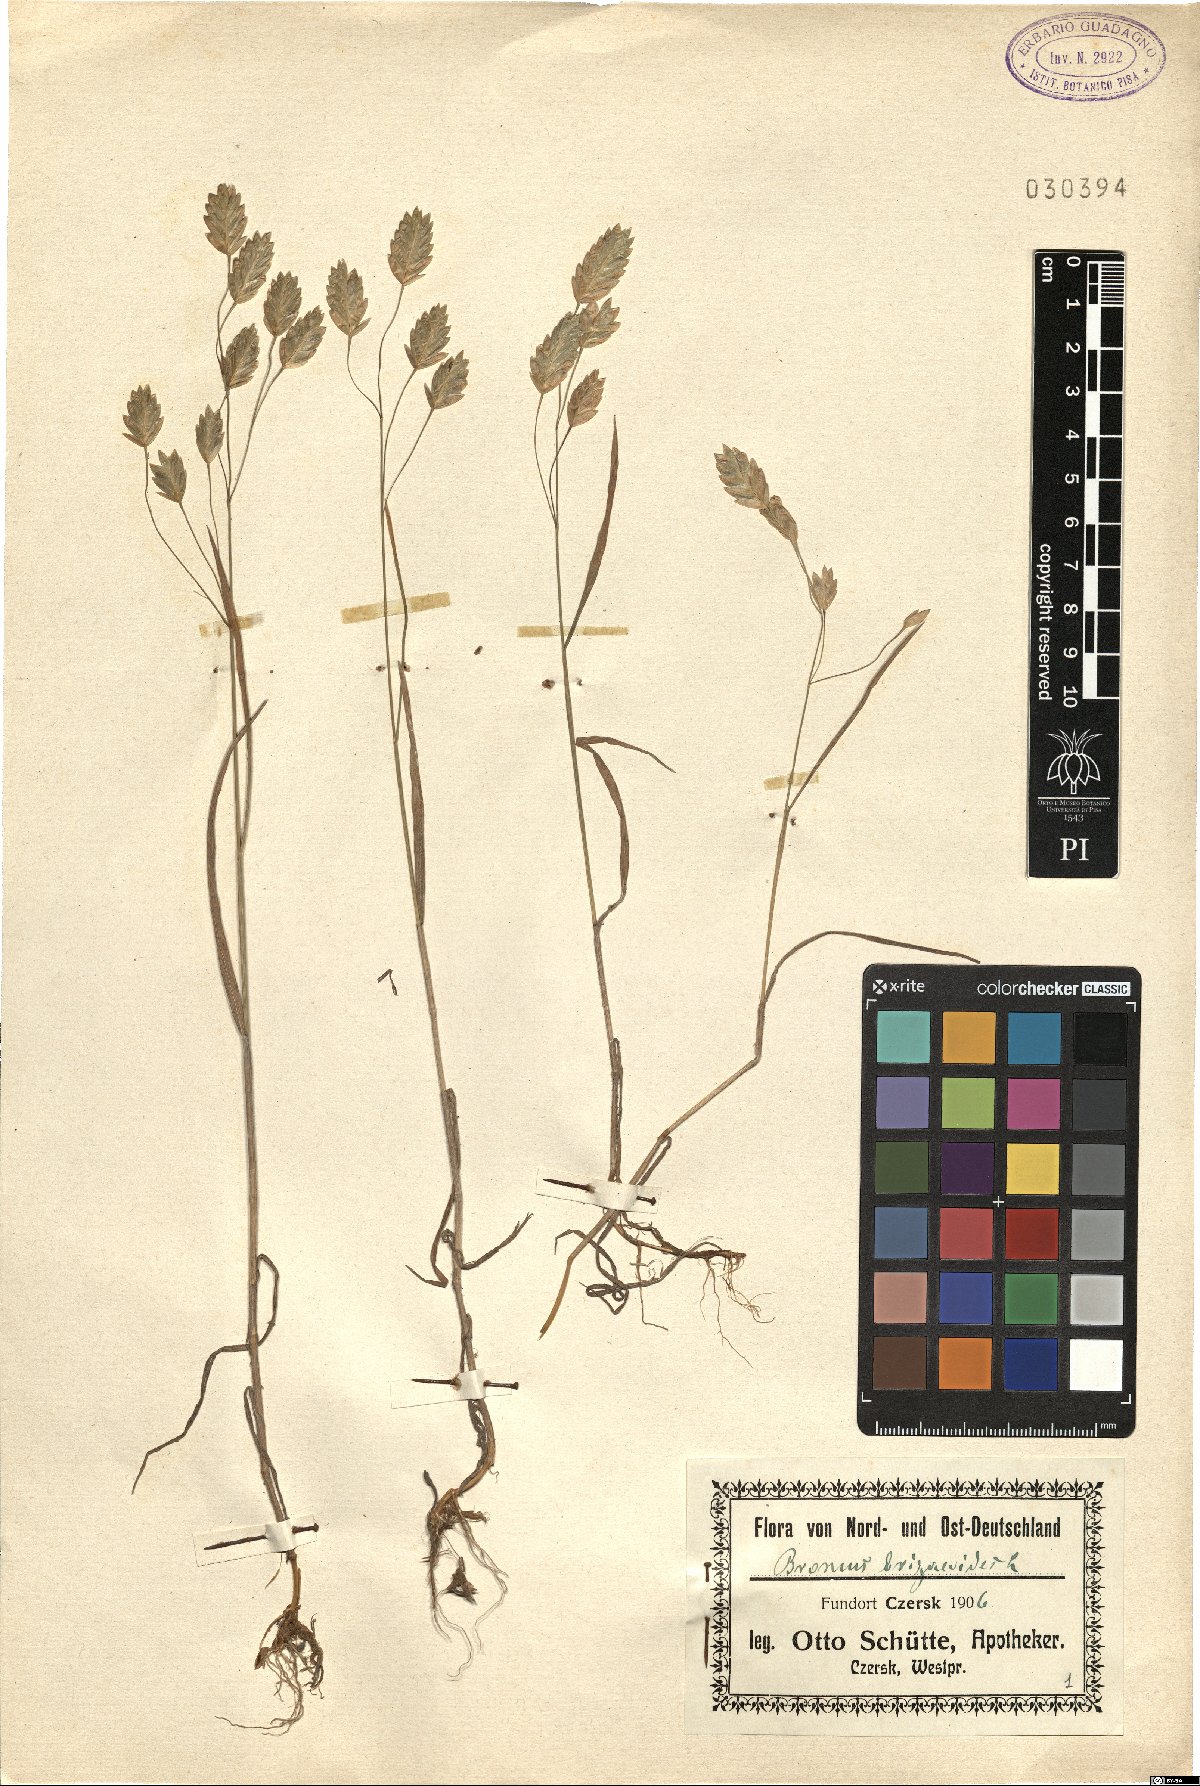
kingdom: Plantae
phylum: Tracheophyta
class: Liliopsida
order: Poales
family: Poaceae
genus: Bromus
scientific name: Bromus
